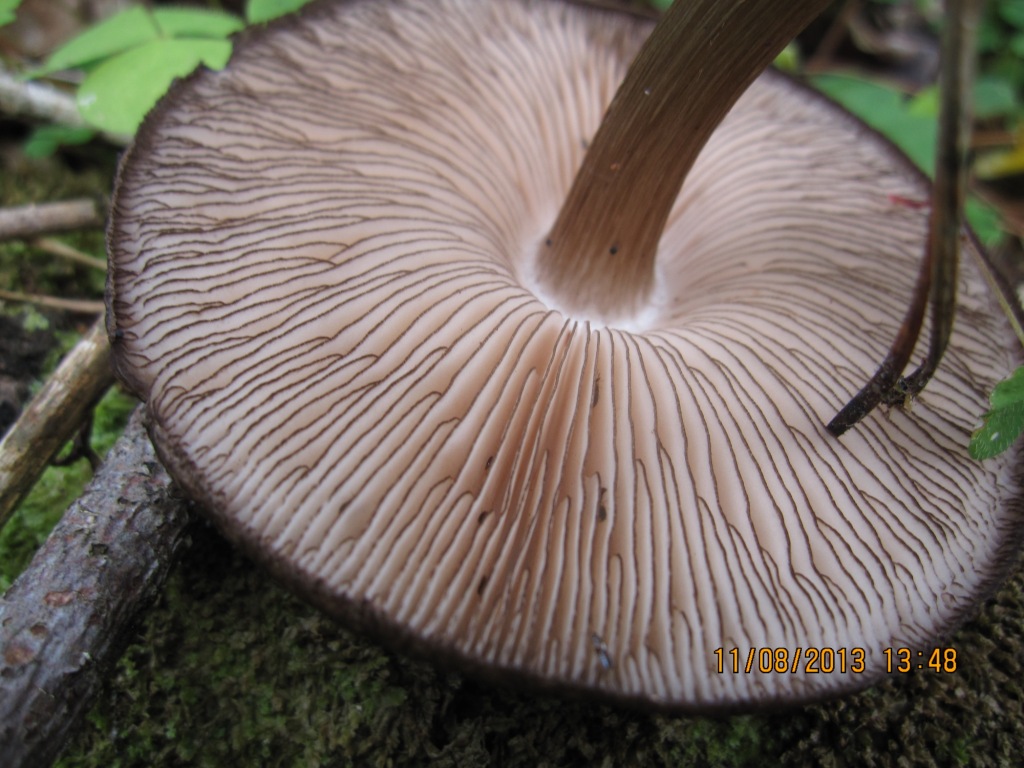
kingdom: Fungi
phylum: Basidiomycota
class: Agaricomycetes
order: Agaricales
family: Pluteaceae
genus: Pluteus
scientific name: Pluteus atromarginatus
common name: sortrandet skærmhat
